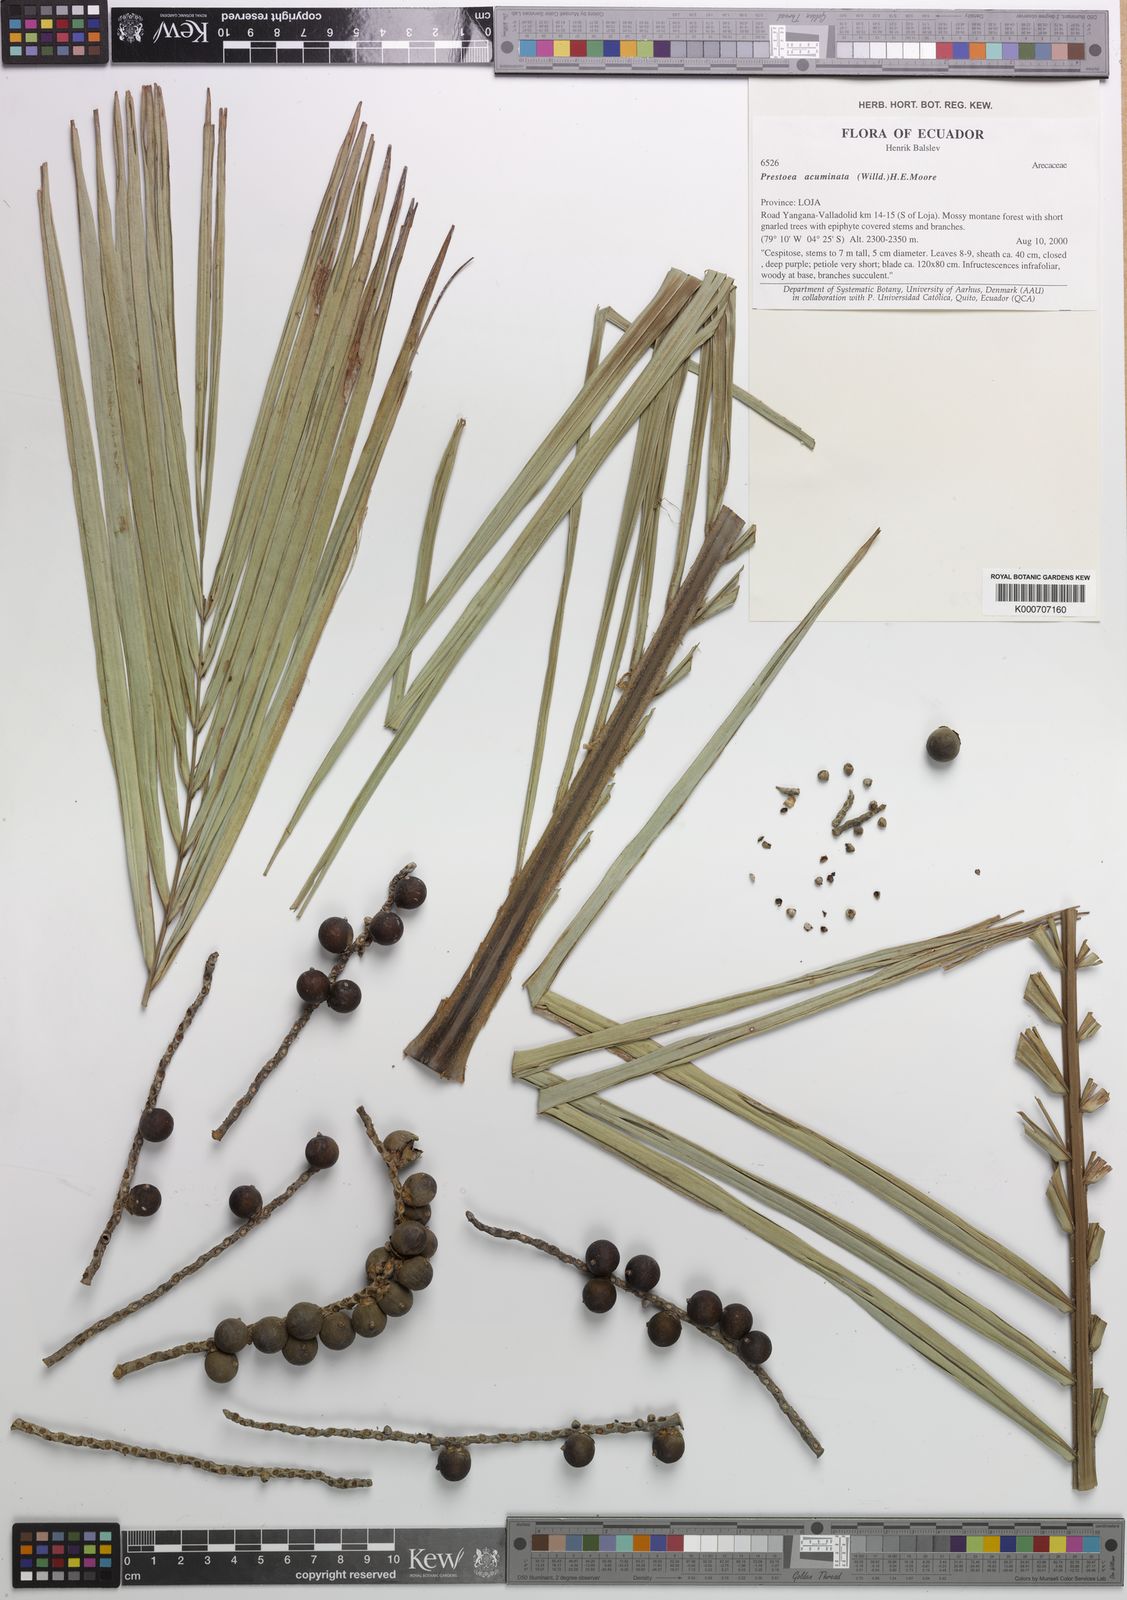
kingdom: Plantae
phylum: Tracheophyta
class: Liliopsida
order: Arecales
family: Arecaceae
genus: Prestoea
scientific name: Prestoea acuminata
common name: Sierran palm
